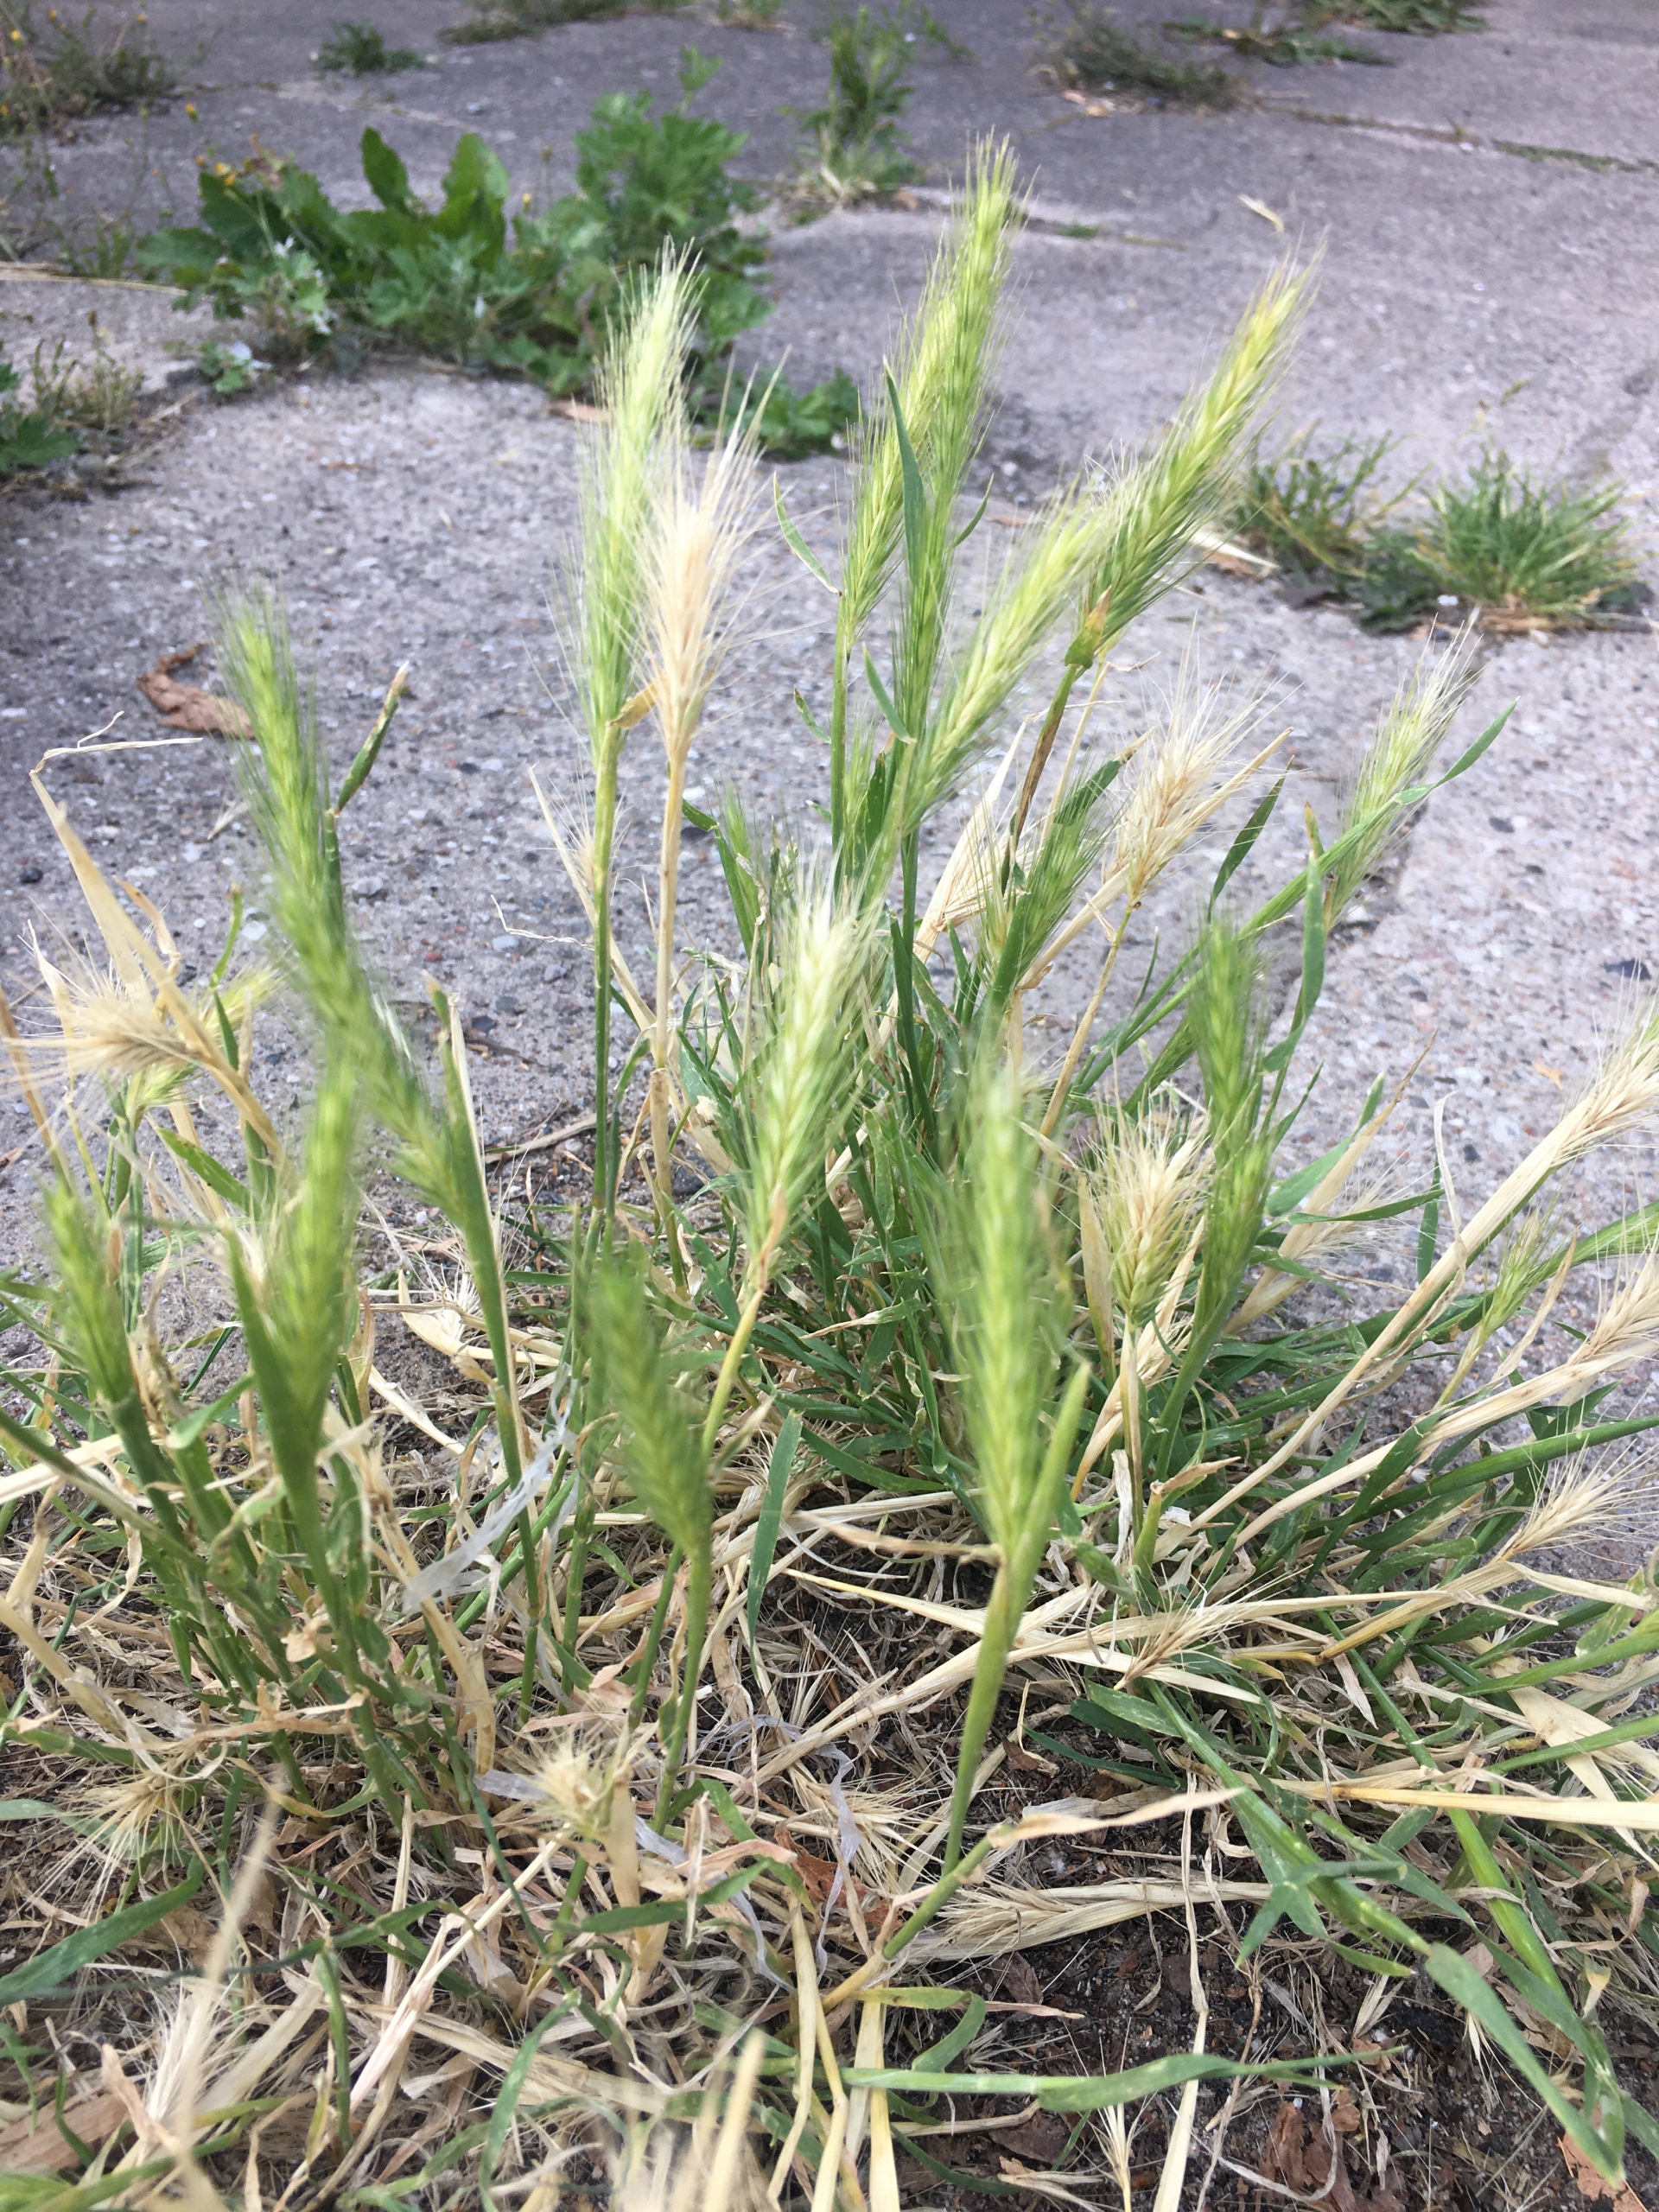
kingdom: Plantae
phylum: Tracheophyta
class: Liliopsida
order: Poales
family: Poaceae
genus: Hordeum
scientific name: Hordeum murinum
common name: Gold byg
